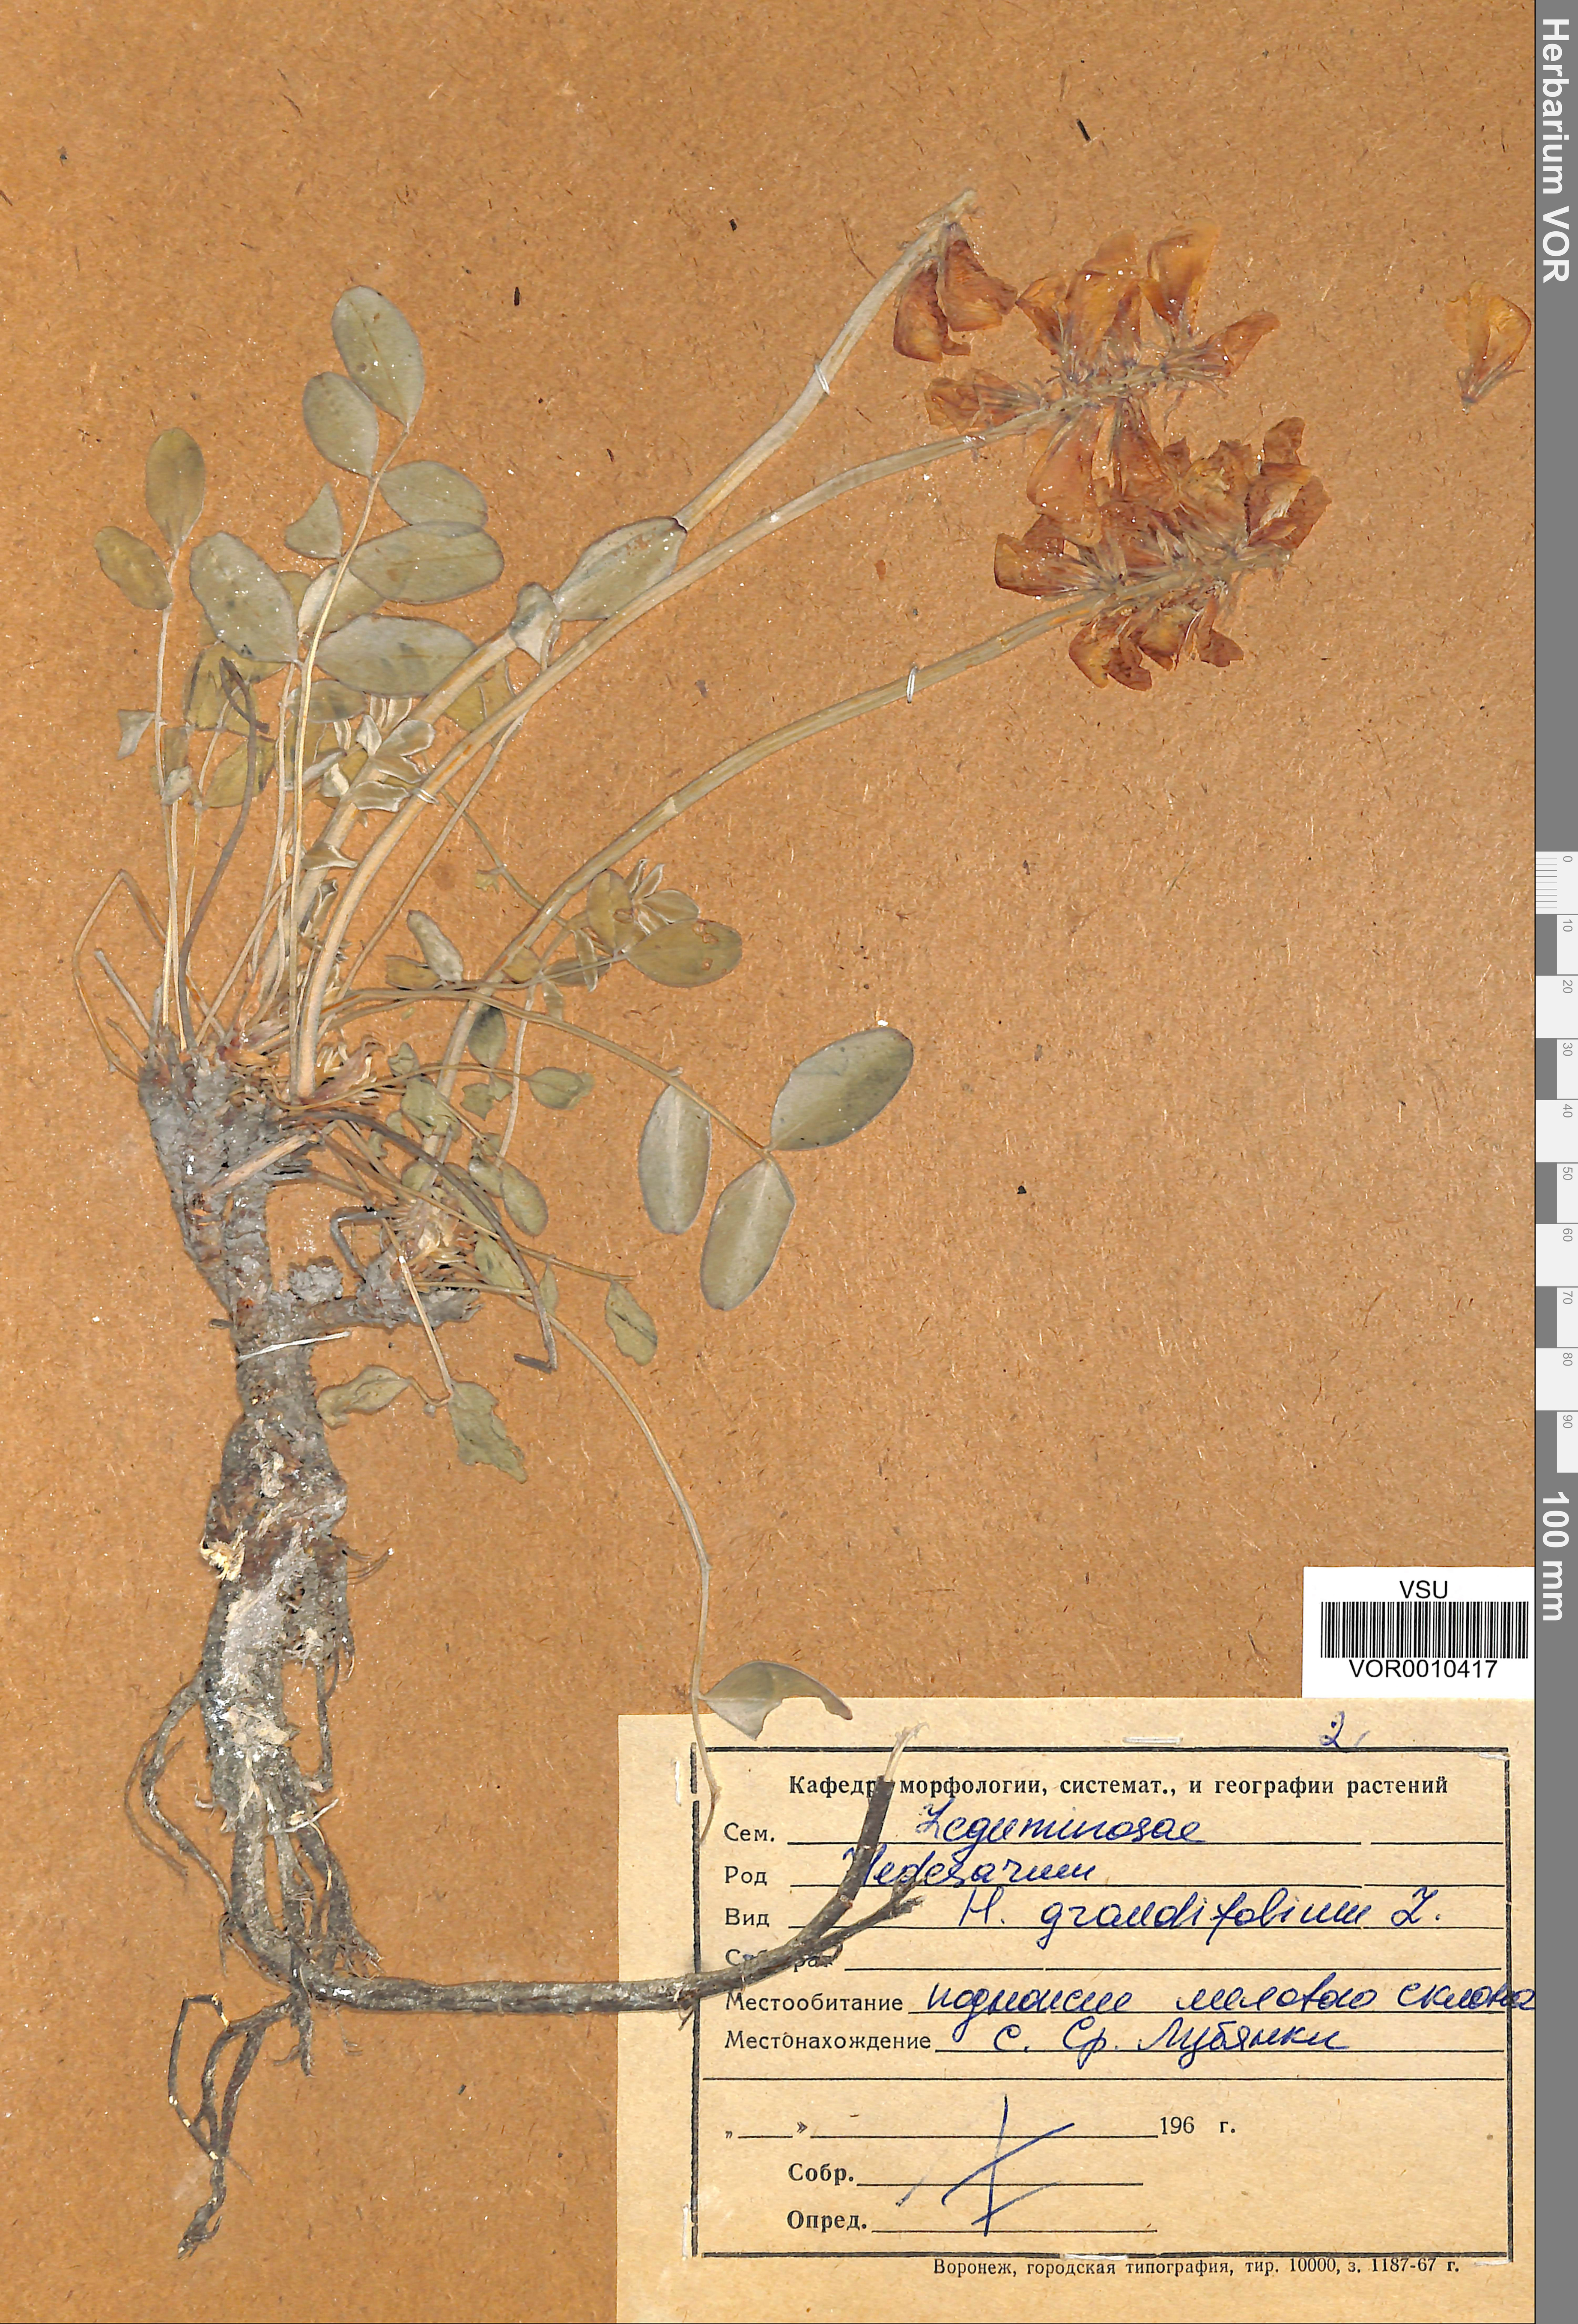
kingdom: Plantae
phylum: Tracheophyta
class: Magnoliopsida
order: Fabales
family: Fabaceae
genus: Hedysarum
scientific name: Hedysarum grandiflorum
